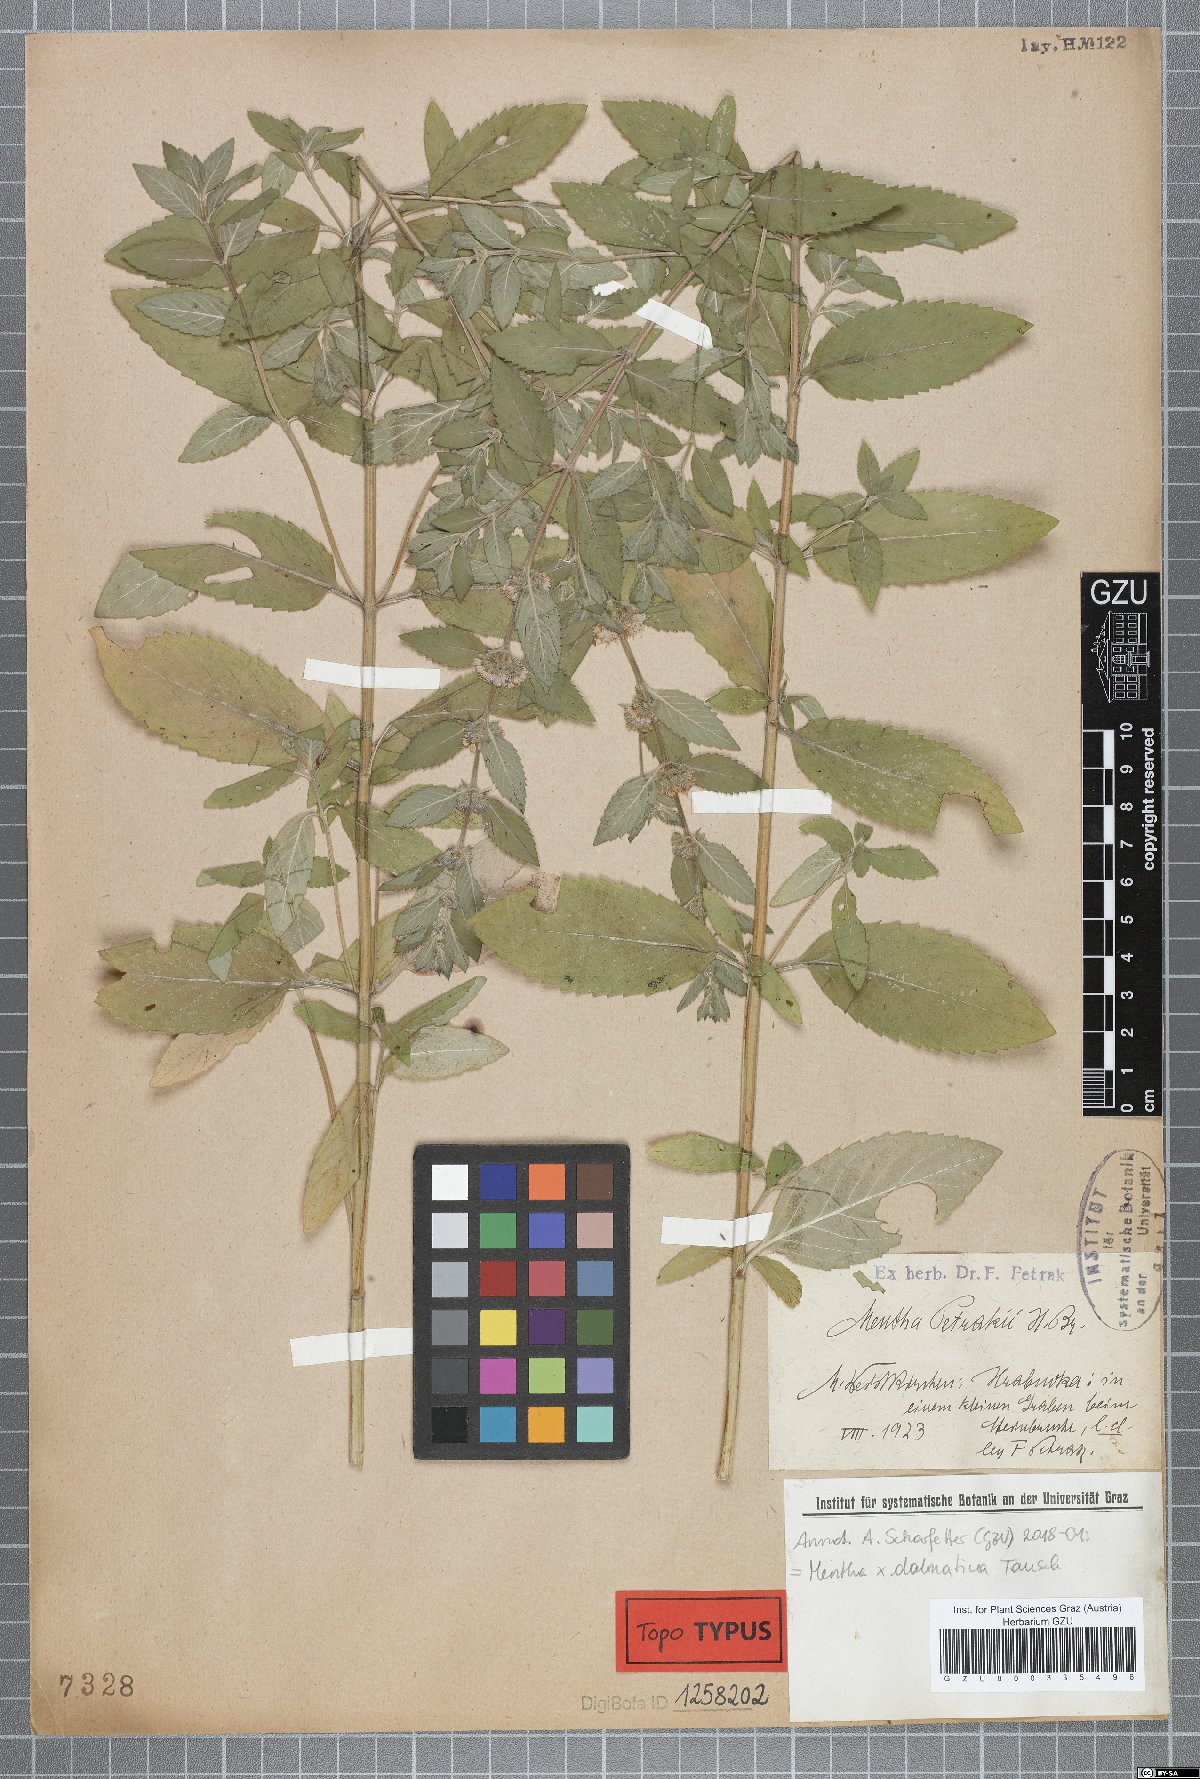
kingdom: Plantae
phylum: Tracheophyta
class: Magnoliopsida
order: Lamiales
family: Lamiaceae
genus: Mentha
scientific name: Mentha dalmatica
